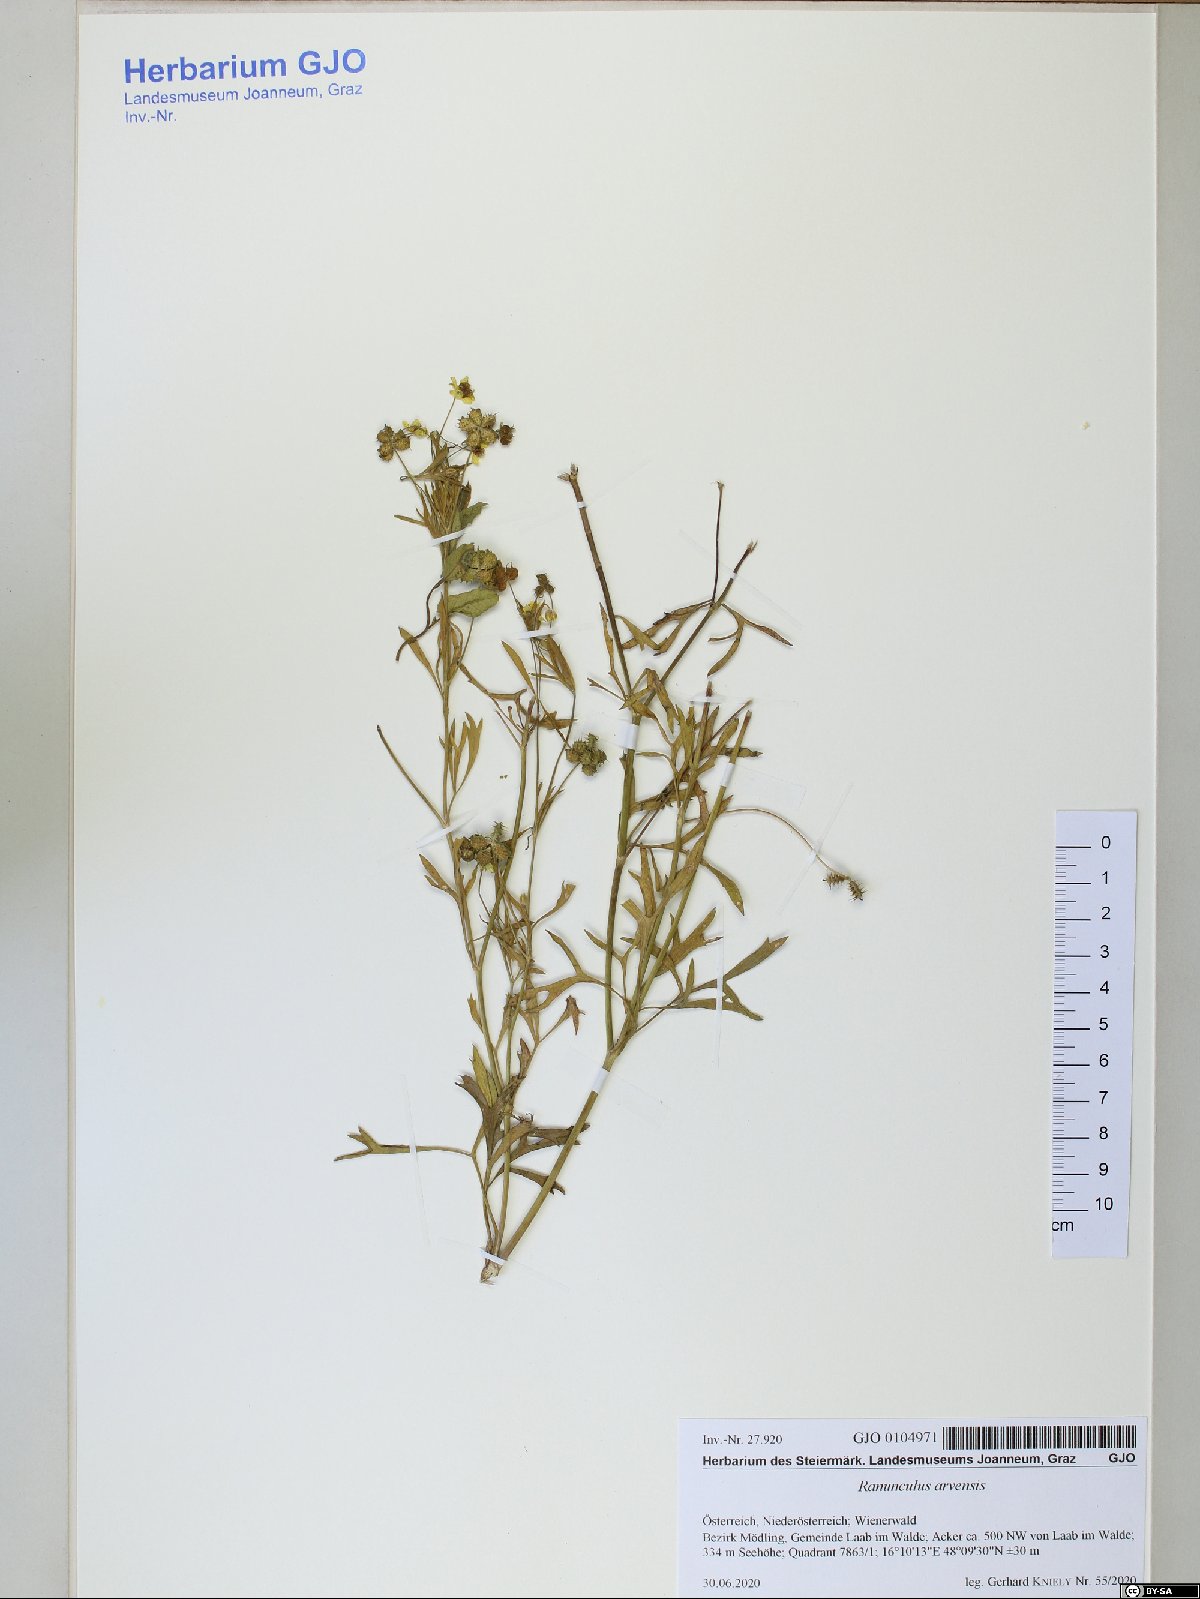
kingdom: Plantae
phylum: Tracheophyta
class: Magnoliopsida
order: Ranunculales
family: Ranunculaceae
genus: Ranunculus
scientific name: Ranunculus arvensis
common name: Corn buttercup
